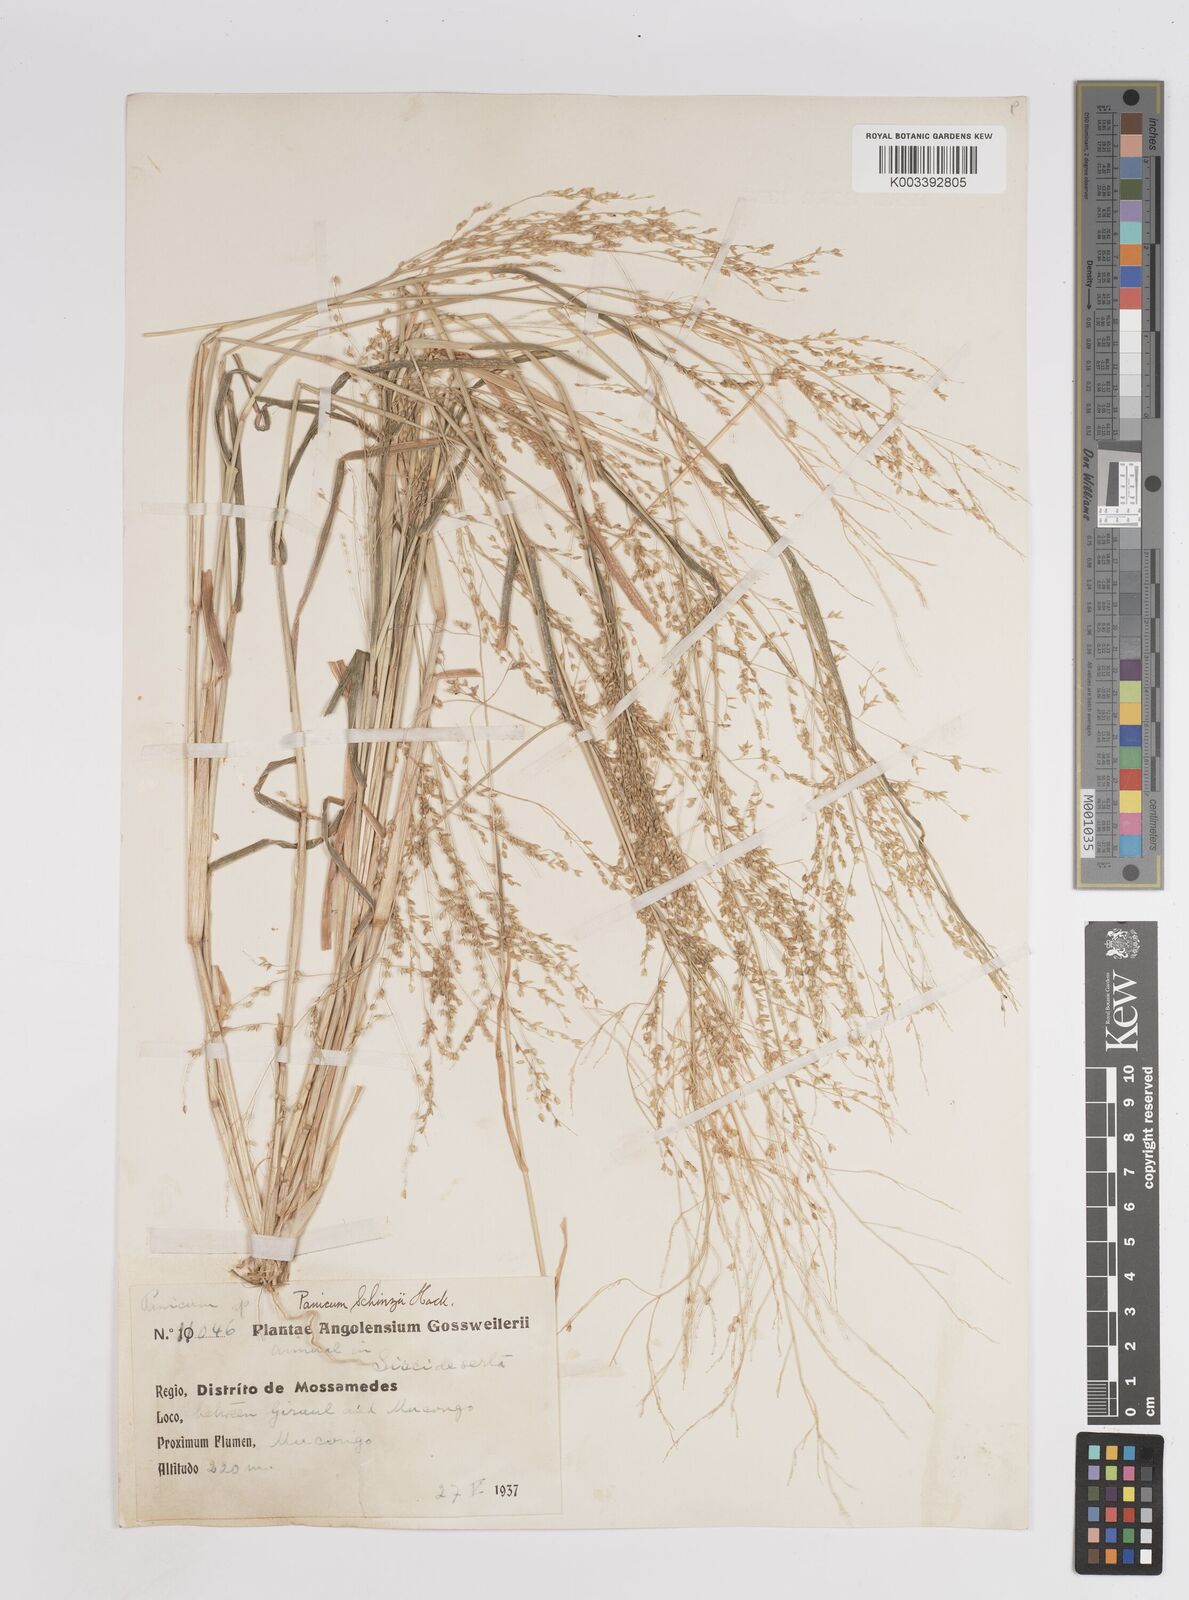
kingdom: Plantae
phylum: Tracheophyta
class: Liliopsida
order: Poales
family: Poaceae
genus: Panicum
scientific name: Panicum schinzii
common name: Sweet grass
